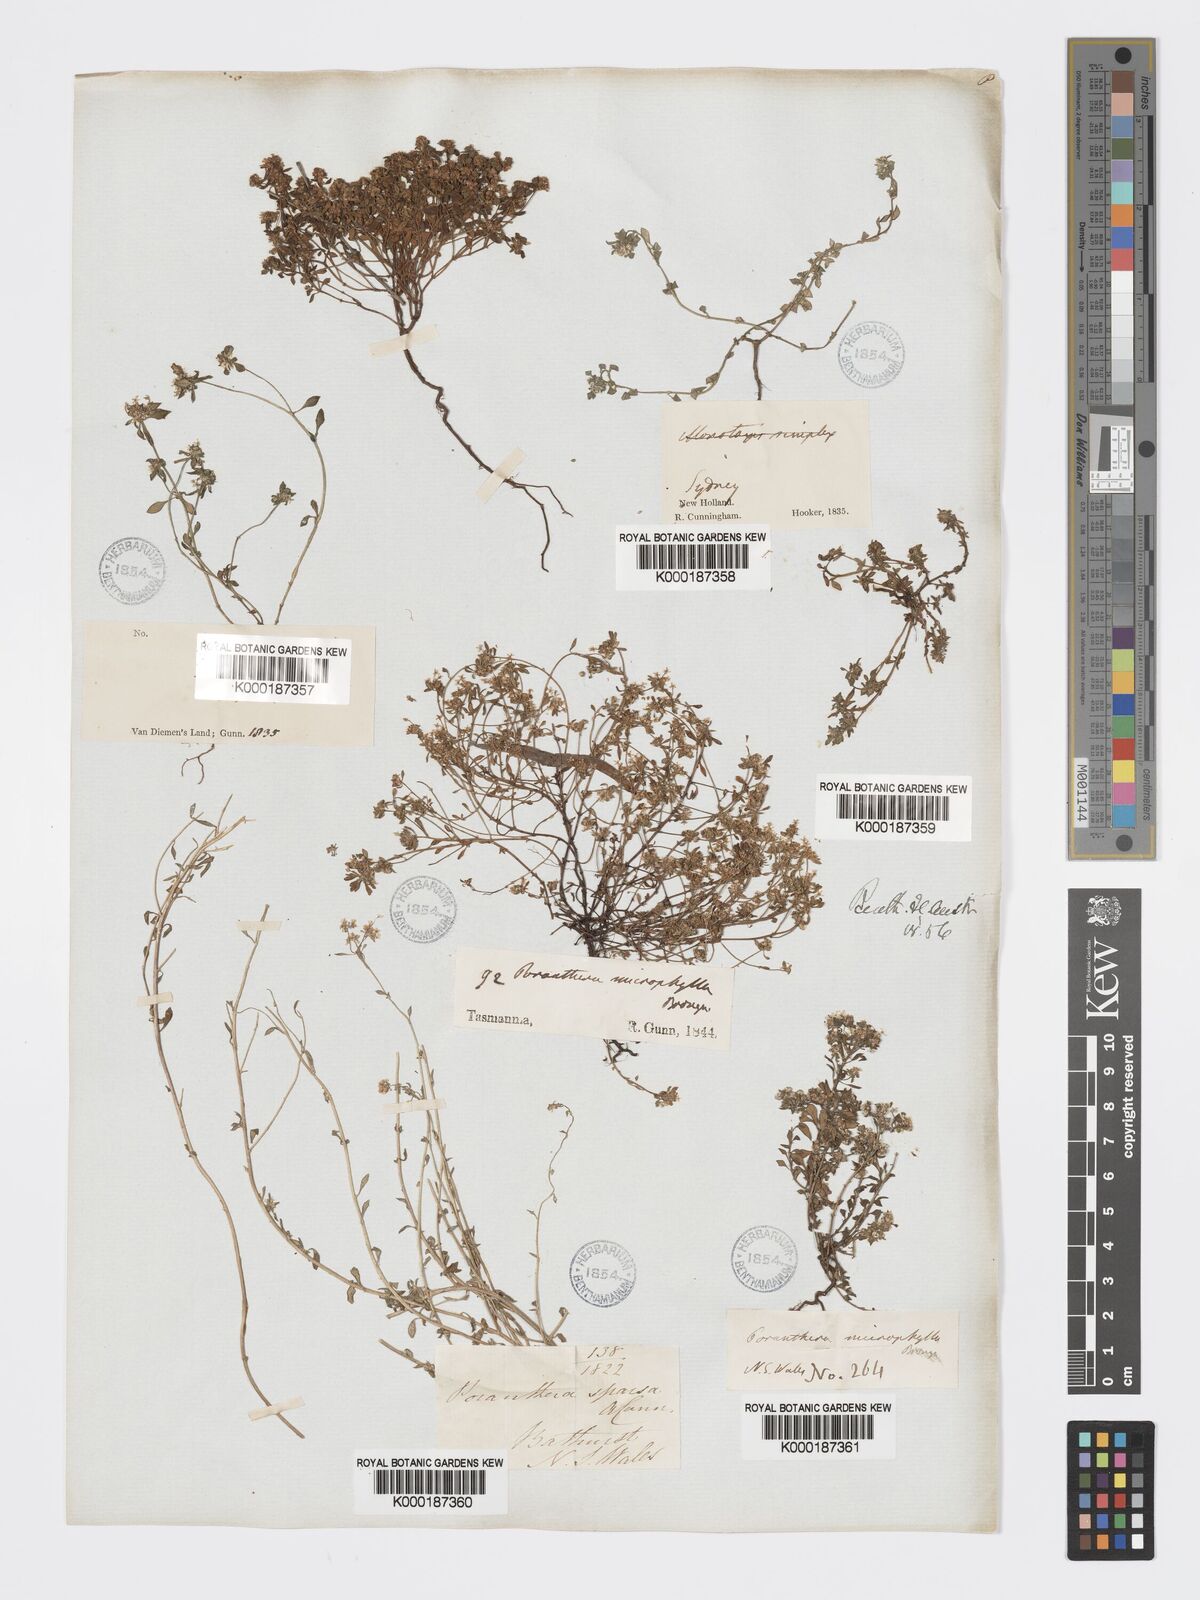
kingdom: Plantae
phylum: Tracheophyta
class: Magnoliopsida
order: Malpighiales
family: Phyllanthaceae
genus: Poranthera
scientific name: Poranthera microphylla
